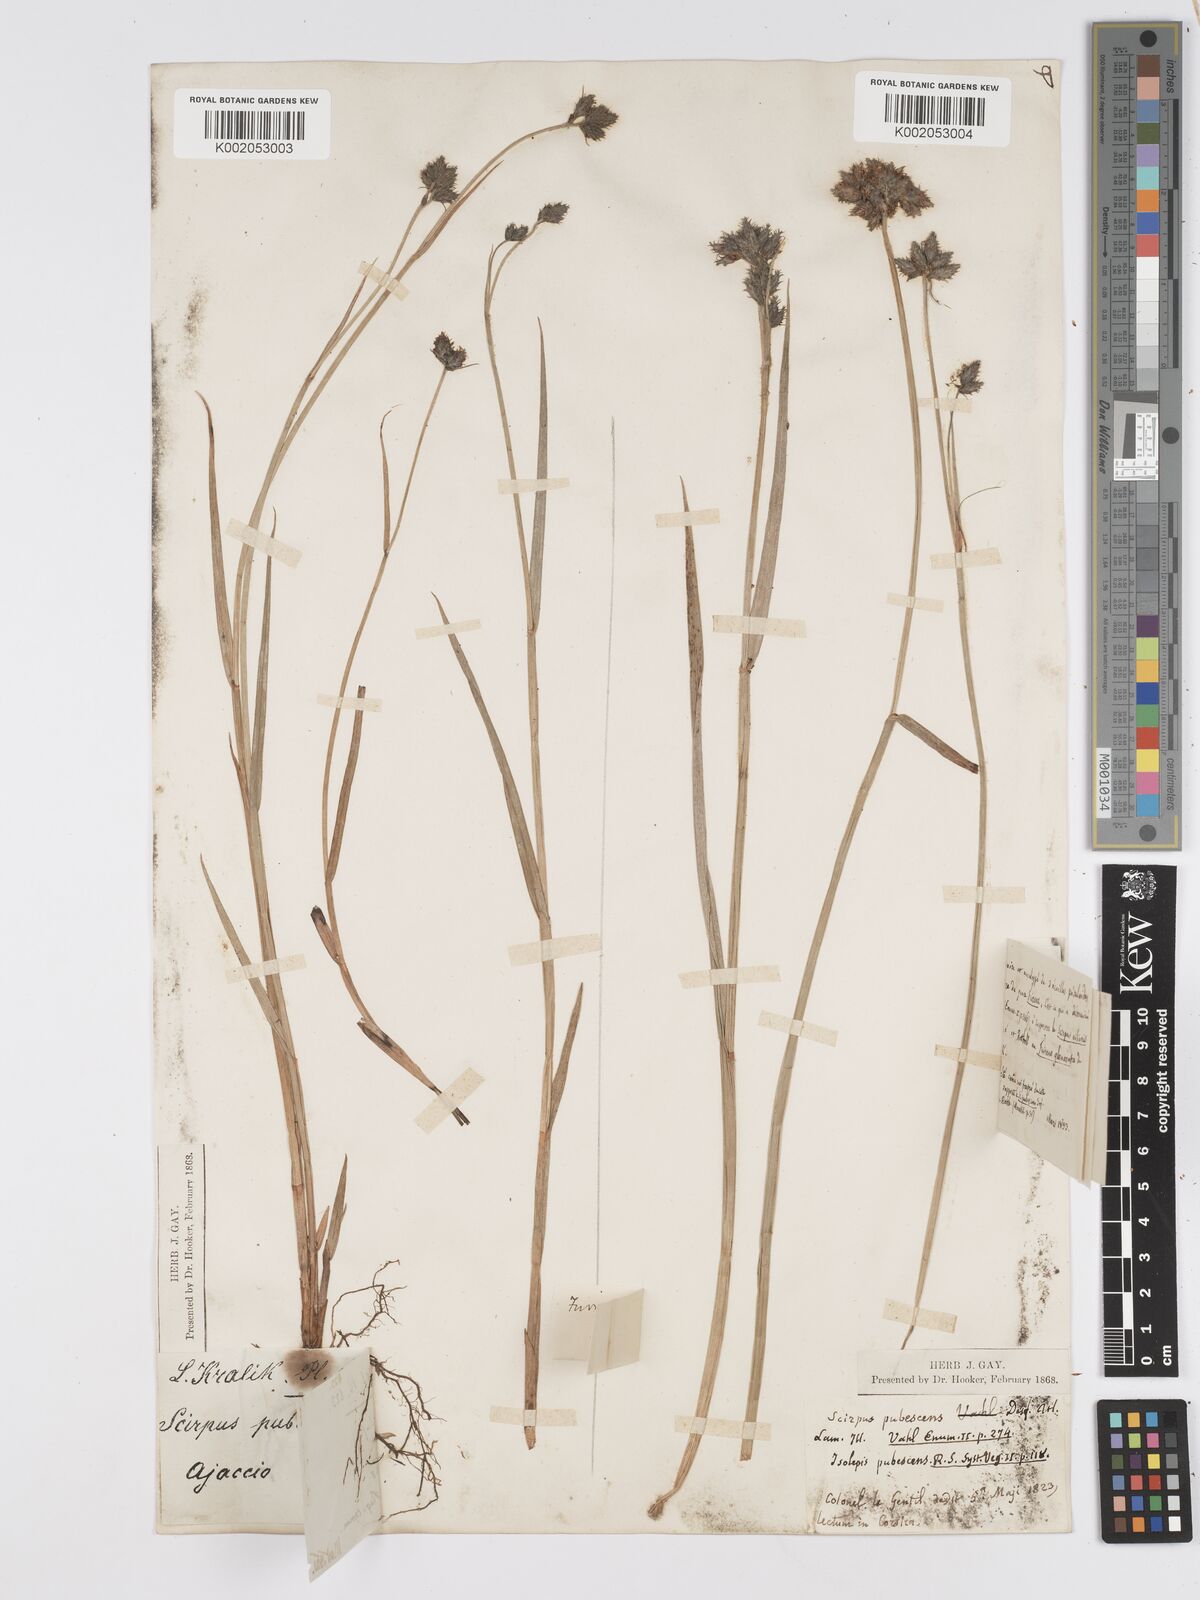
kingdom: Plantae
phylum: Tracheophyta
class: Liliopsida
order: Poales
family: Cyperaceae
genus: Fuirena
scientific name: Fuirena pubescens
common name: Hairy sedge
